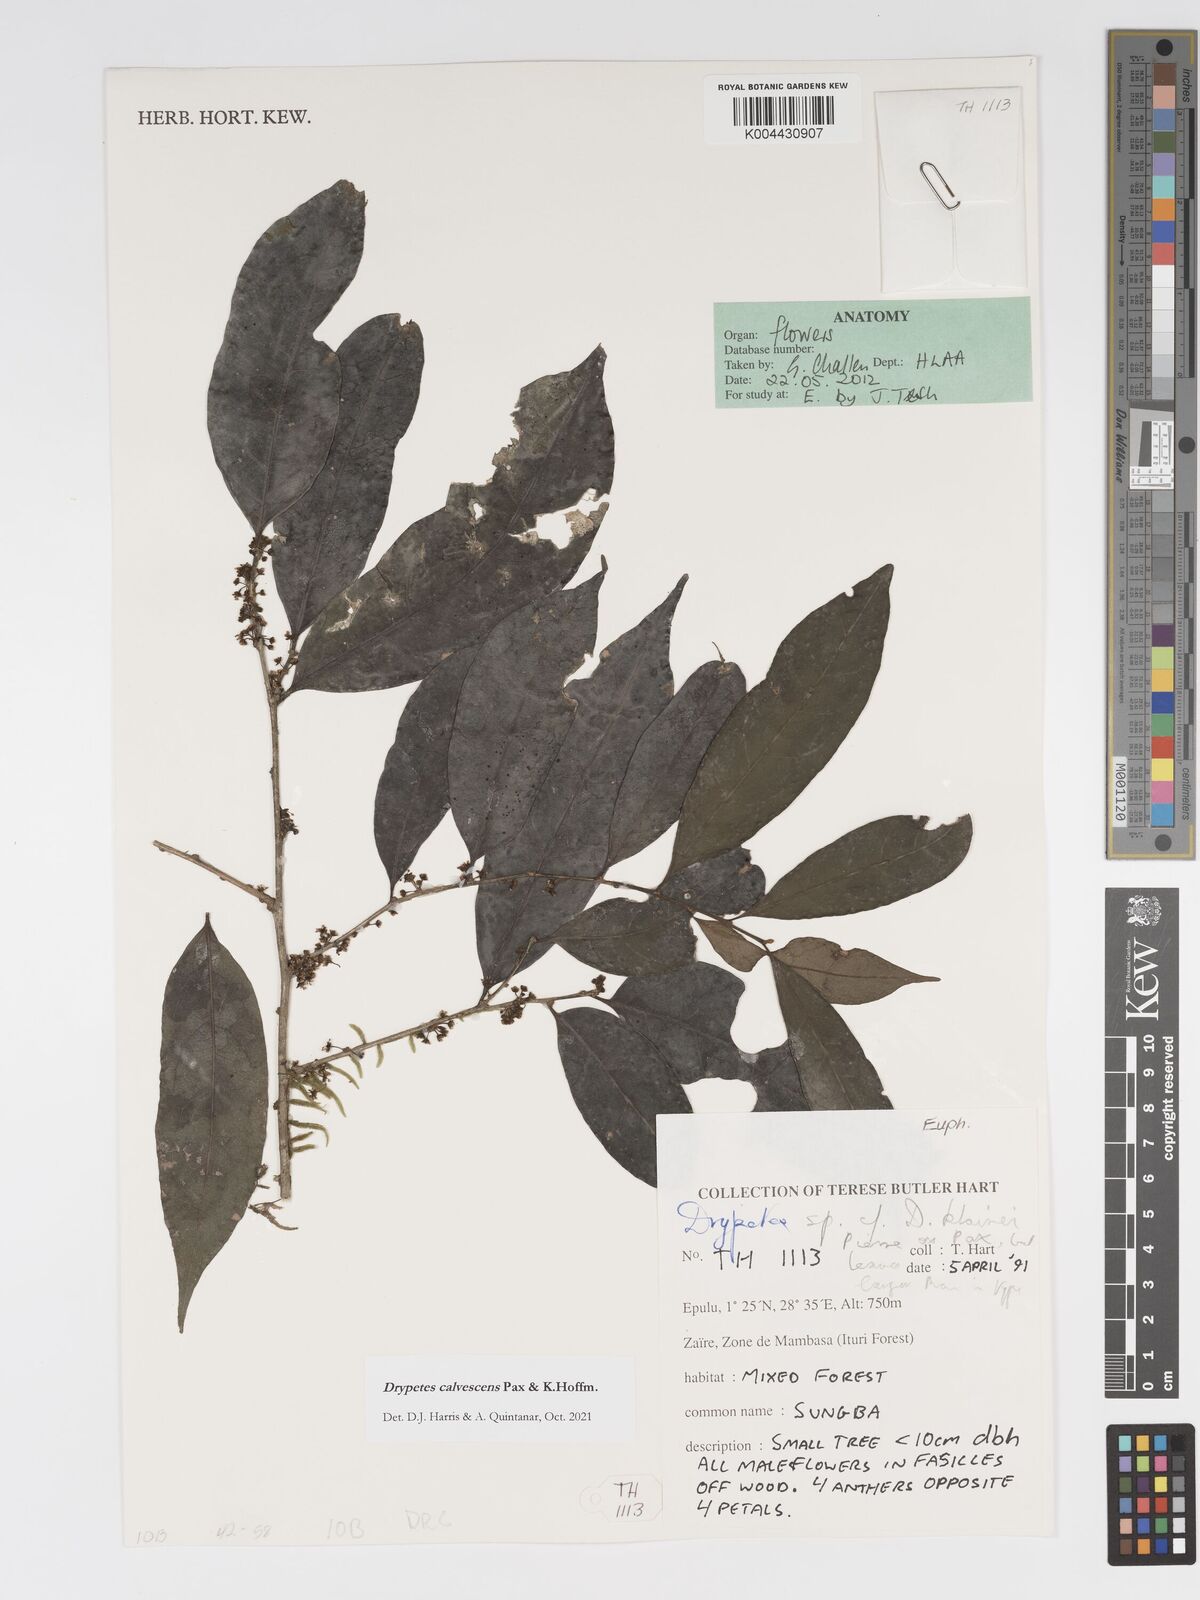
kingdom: Plantae
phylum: Tracheophyta
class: Magnoliopsida
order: Malpighiales
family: Putranjivaceae
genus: Drypetes
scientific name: Drypetes calvescens
